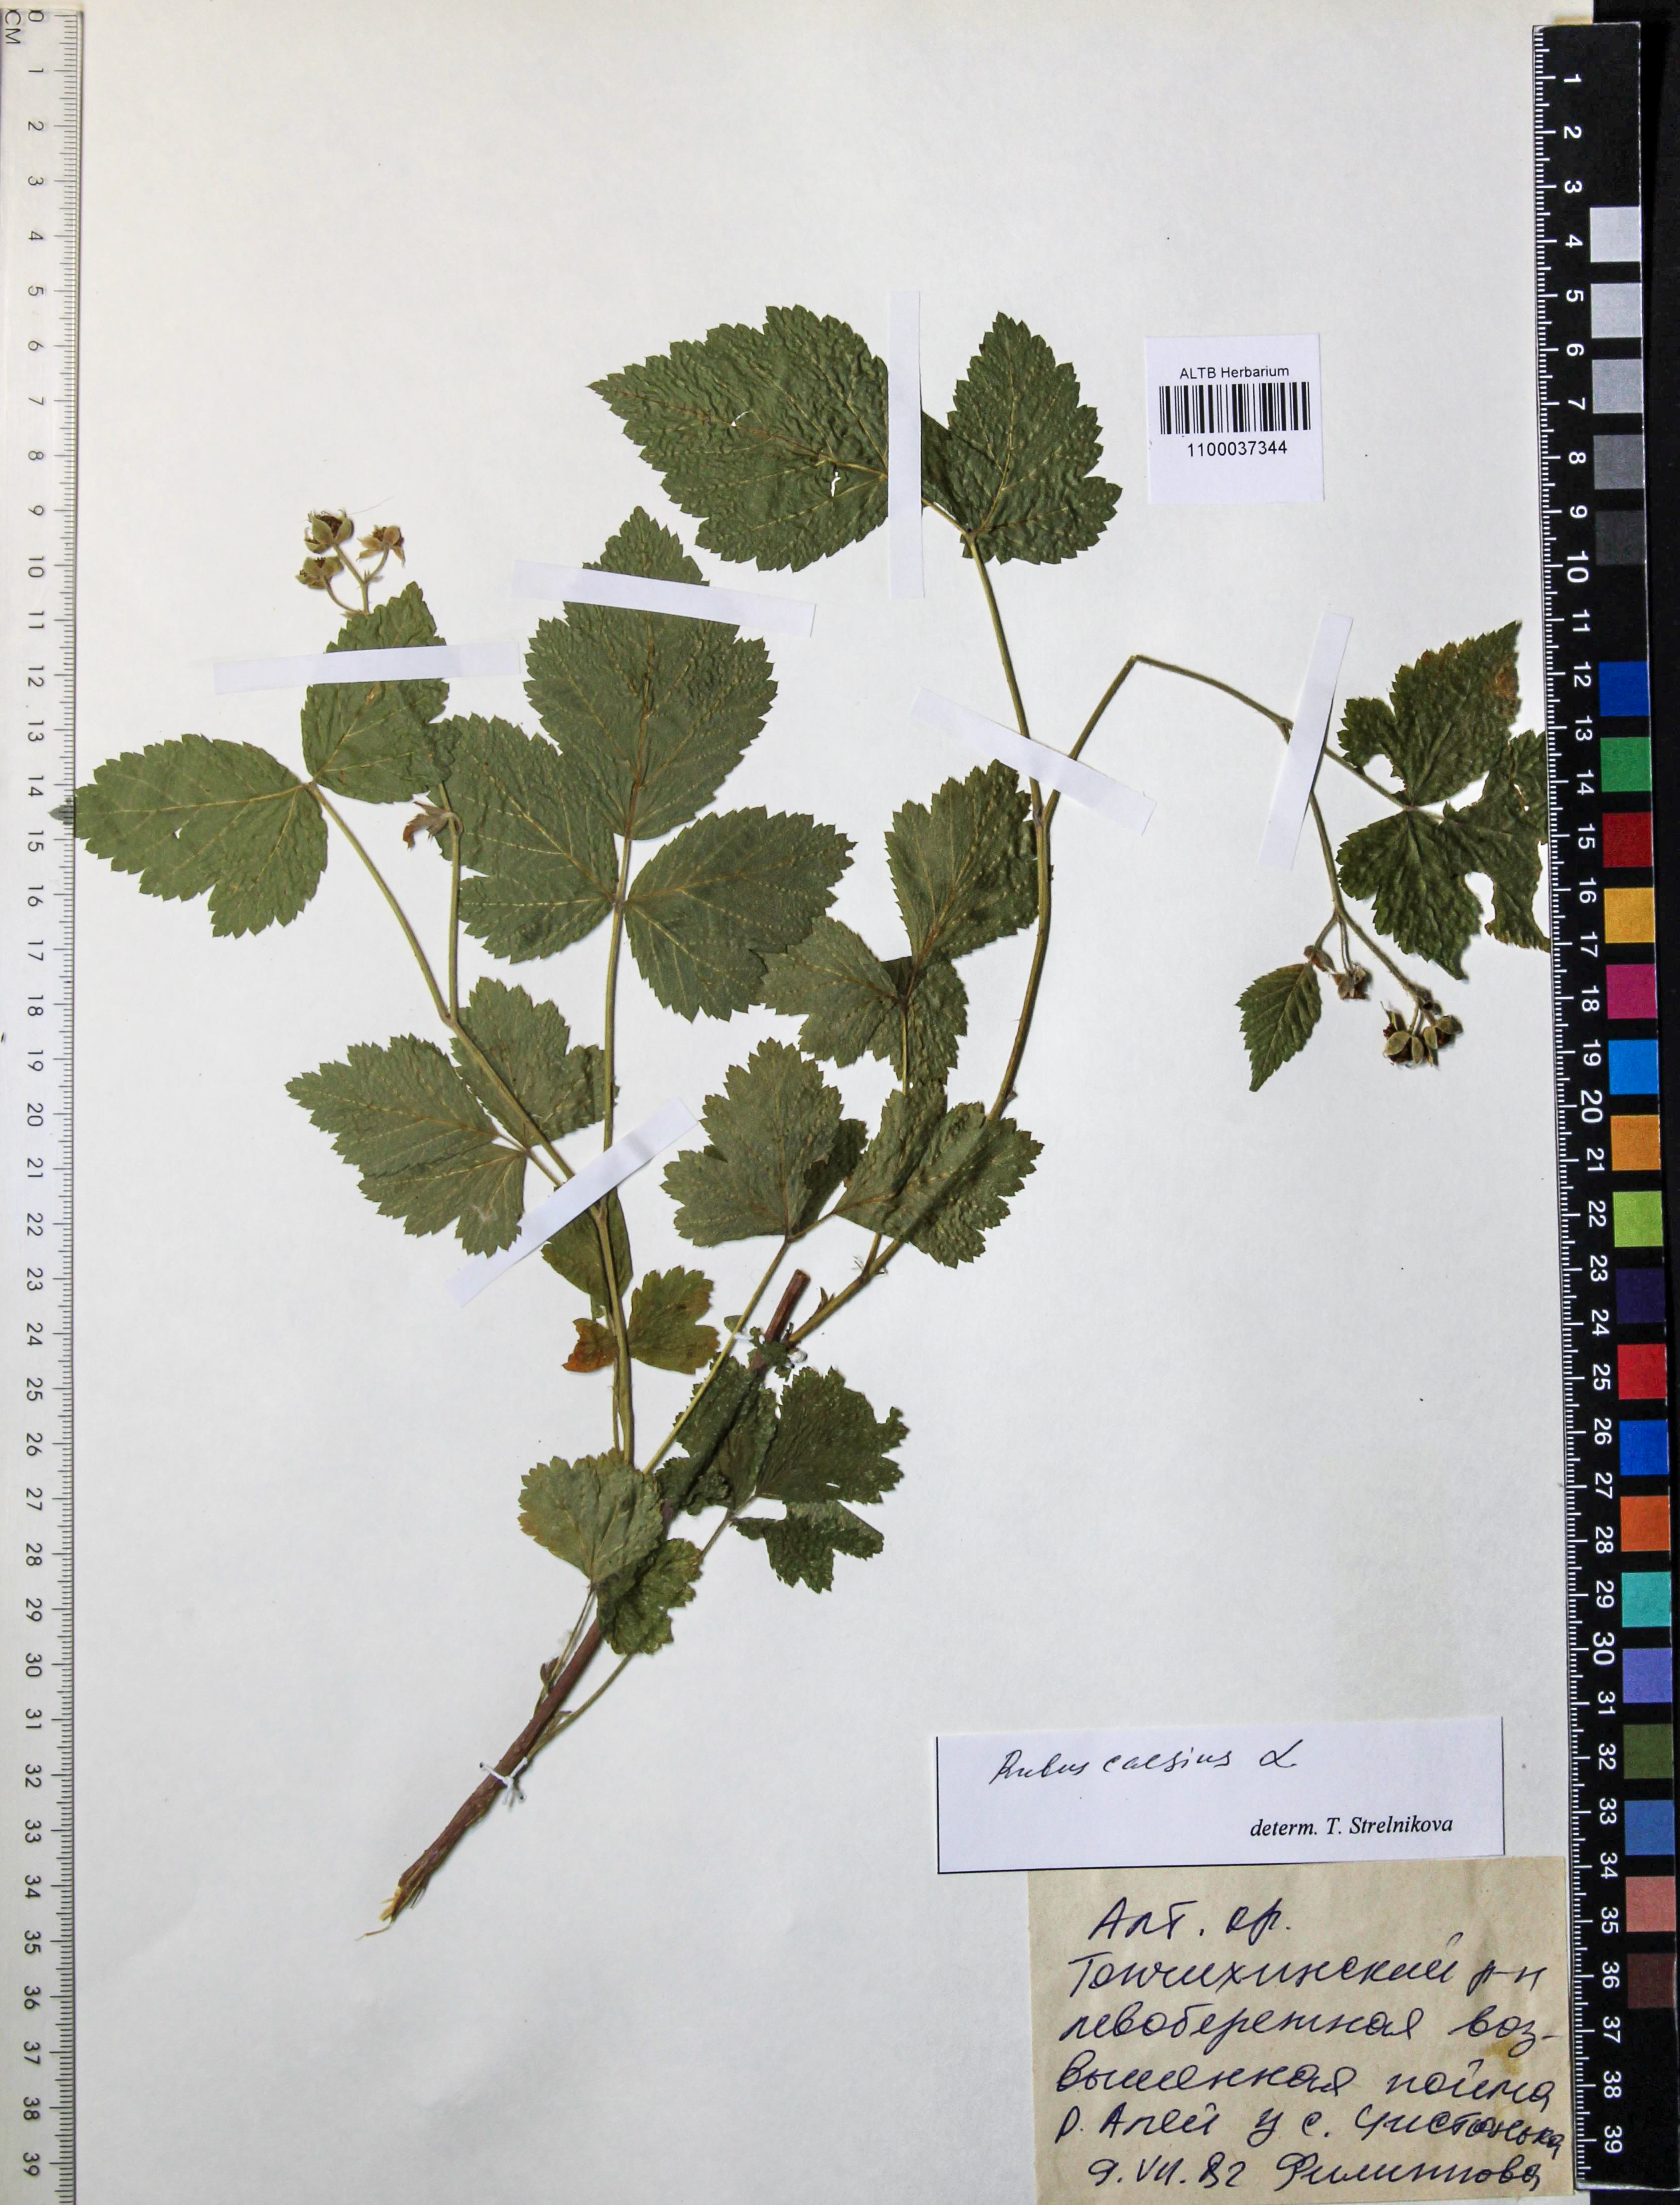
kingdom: Plantae
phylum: Tracheophyta
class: Magnoliopsida
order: Rosales
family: Rosaceae
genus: Rubus
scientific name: Rubus caesius
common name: Dewberry
